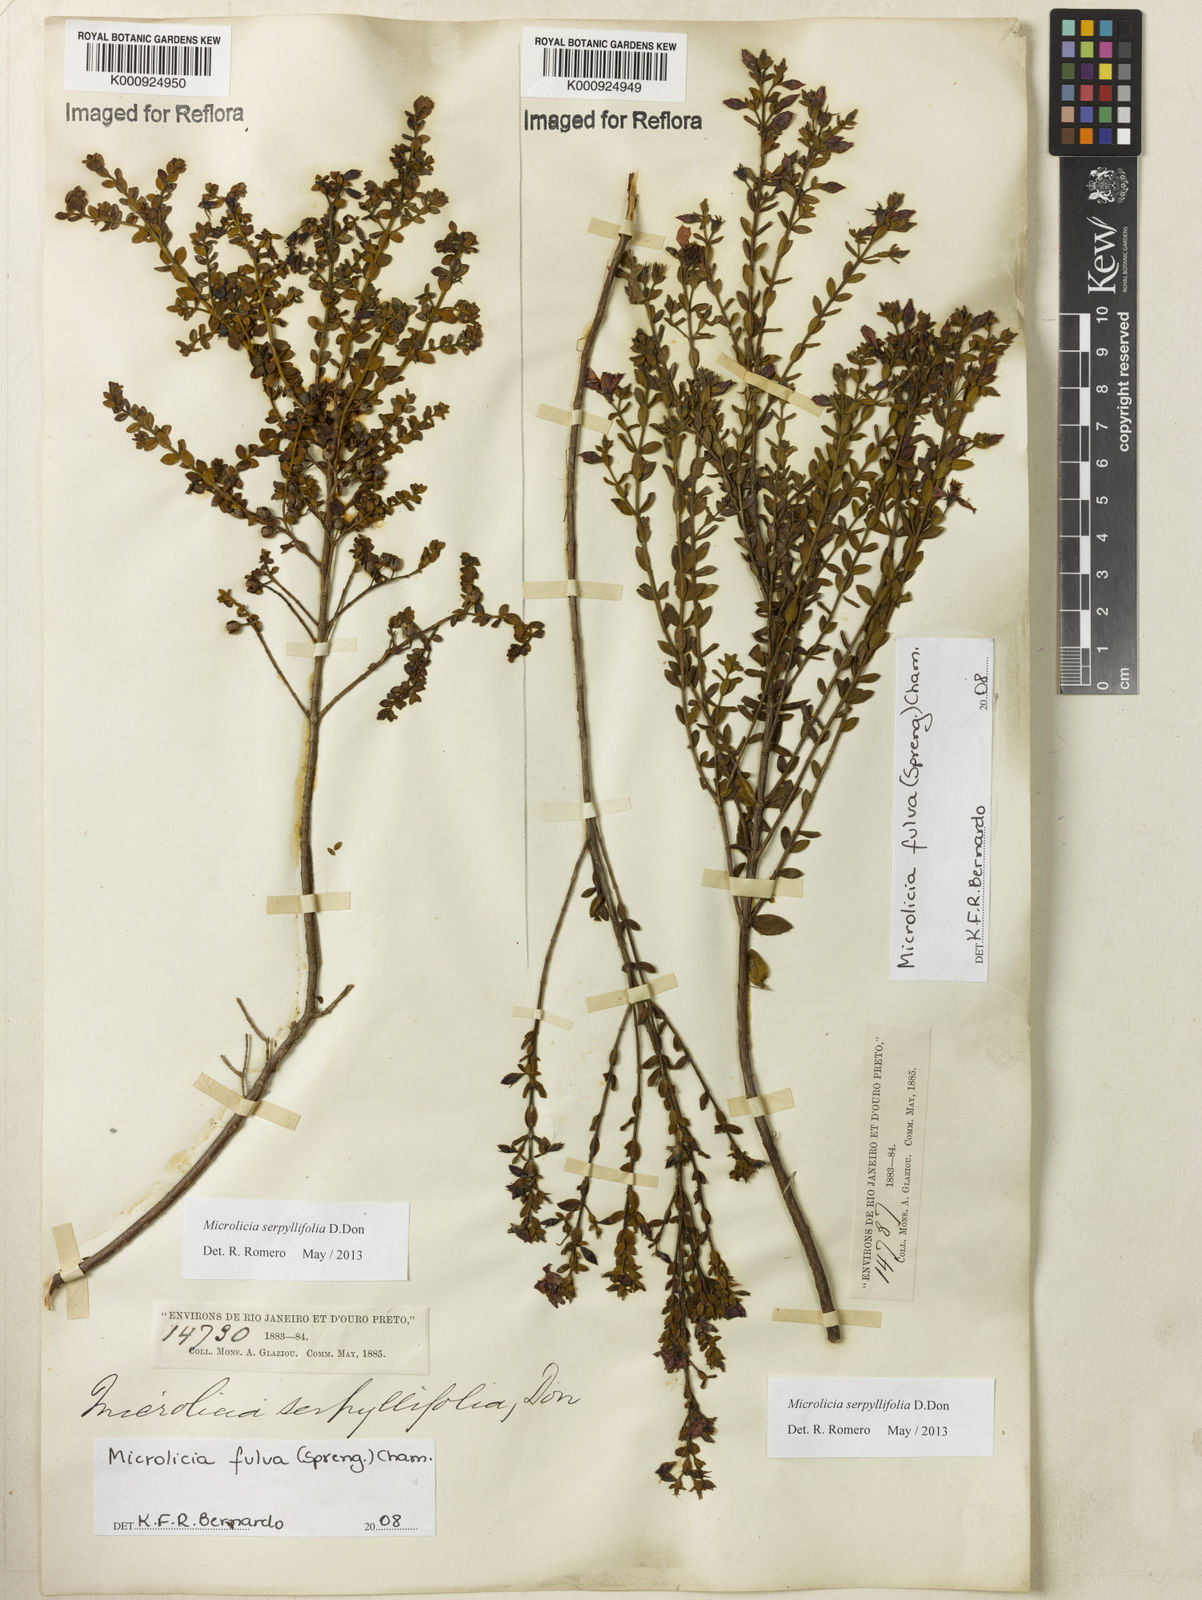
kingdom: Plantae
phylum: Tracheophyta
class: Magnoliopsida
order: Myrtales
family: Melastomataceae
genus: Microlicia
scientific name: Microlicia fulva
